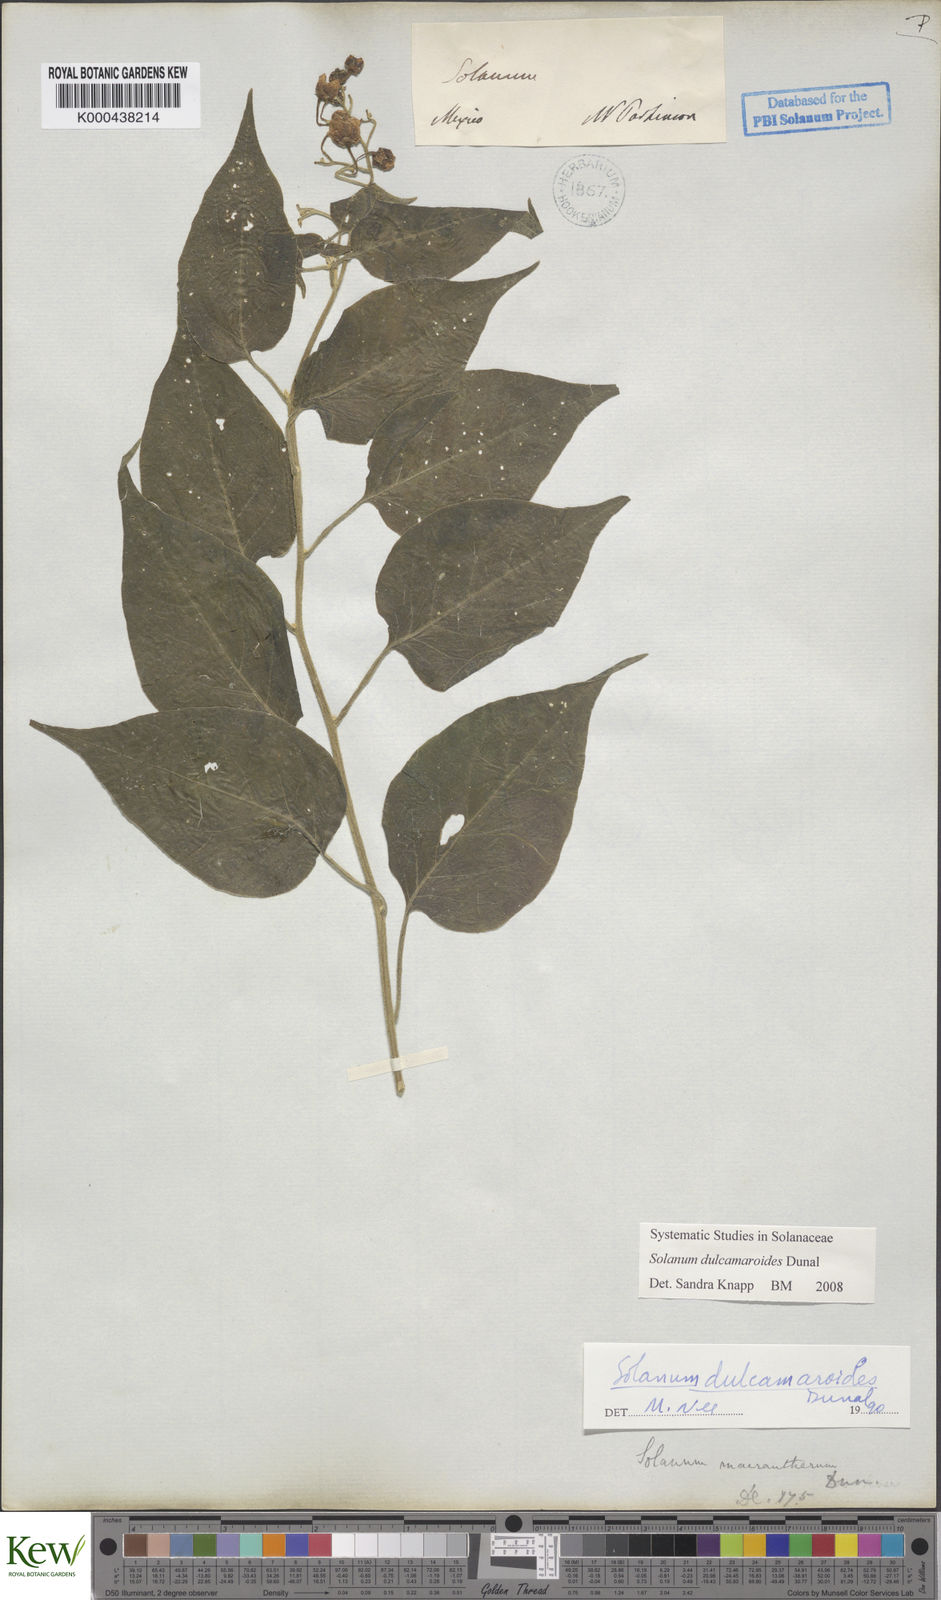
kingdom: Plantae
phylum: Tracheophyta
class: Magnoliopsida
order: Solanales
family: Solanaceae
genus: Solanum
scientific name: Solanum dulcamaroides
